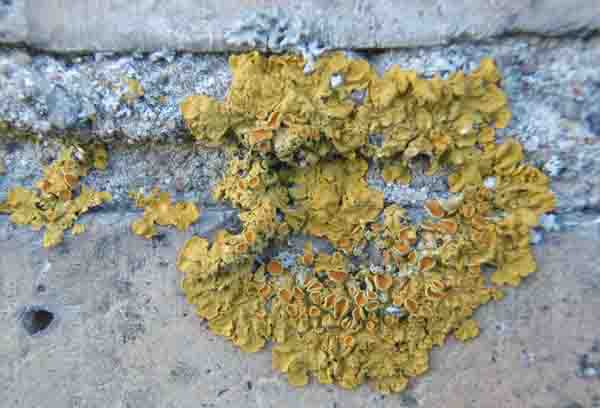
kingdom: Fungi
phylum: Ascomycota
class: Lecanoromycetes
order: Teloschistales
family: Teloschistaceae
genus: Xanthoria
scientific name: Xanthoria parietina
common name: almindelig væggelav
